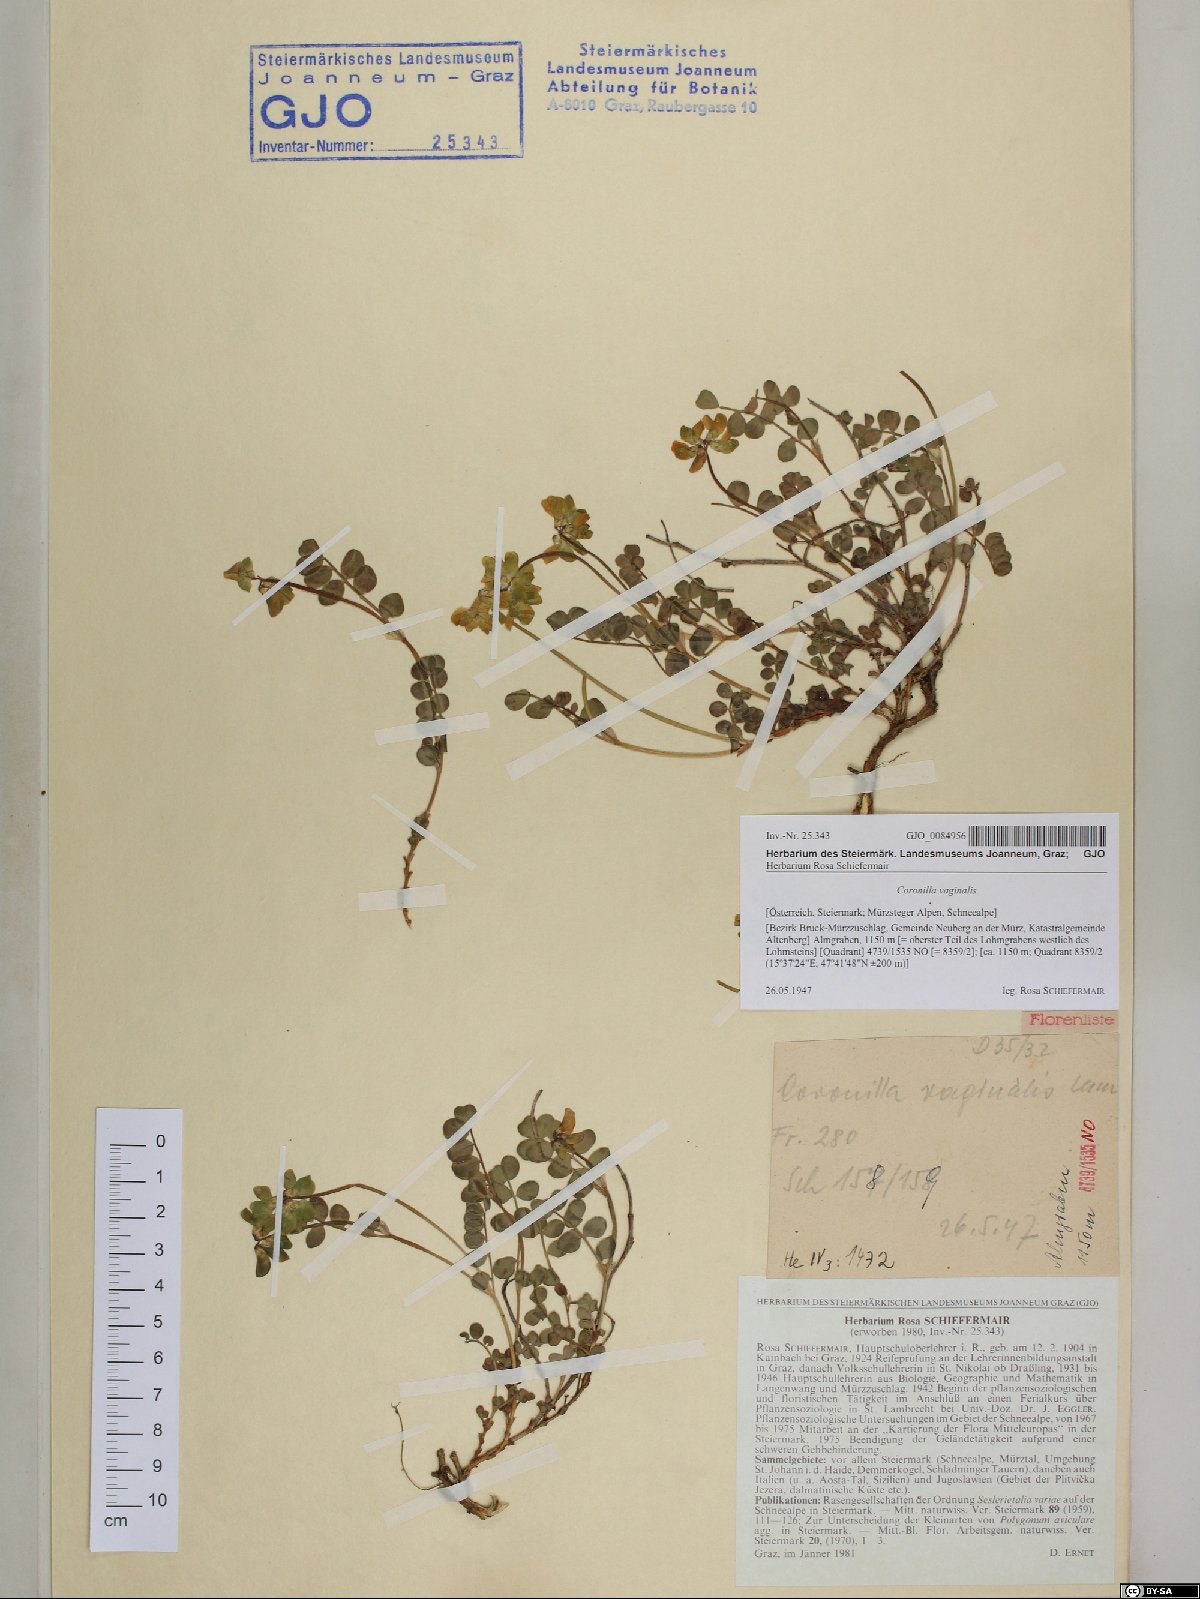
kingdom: Plantae
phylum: Tracheophyta
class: Magnoliopsida
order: Fabales
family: Fabaceae
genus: Coronilla
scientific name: Coronilla vaginalis
